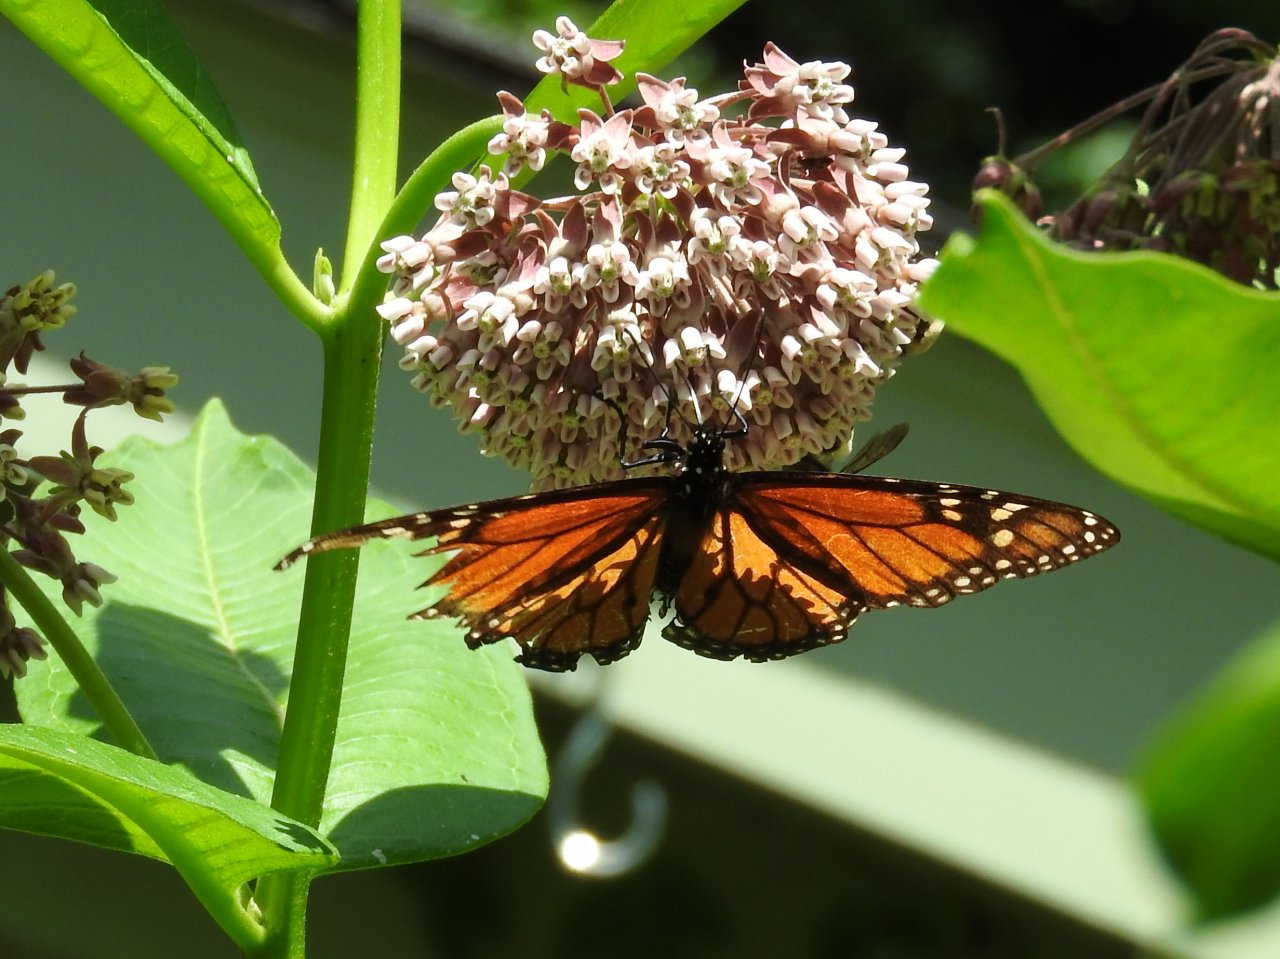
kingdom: Animalia
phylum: Arthropoda
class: Insecta
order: Lepidoptera
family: Nymphalidae
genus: Danaus
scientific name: Danaus plexippus
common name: Monarch
